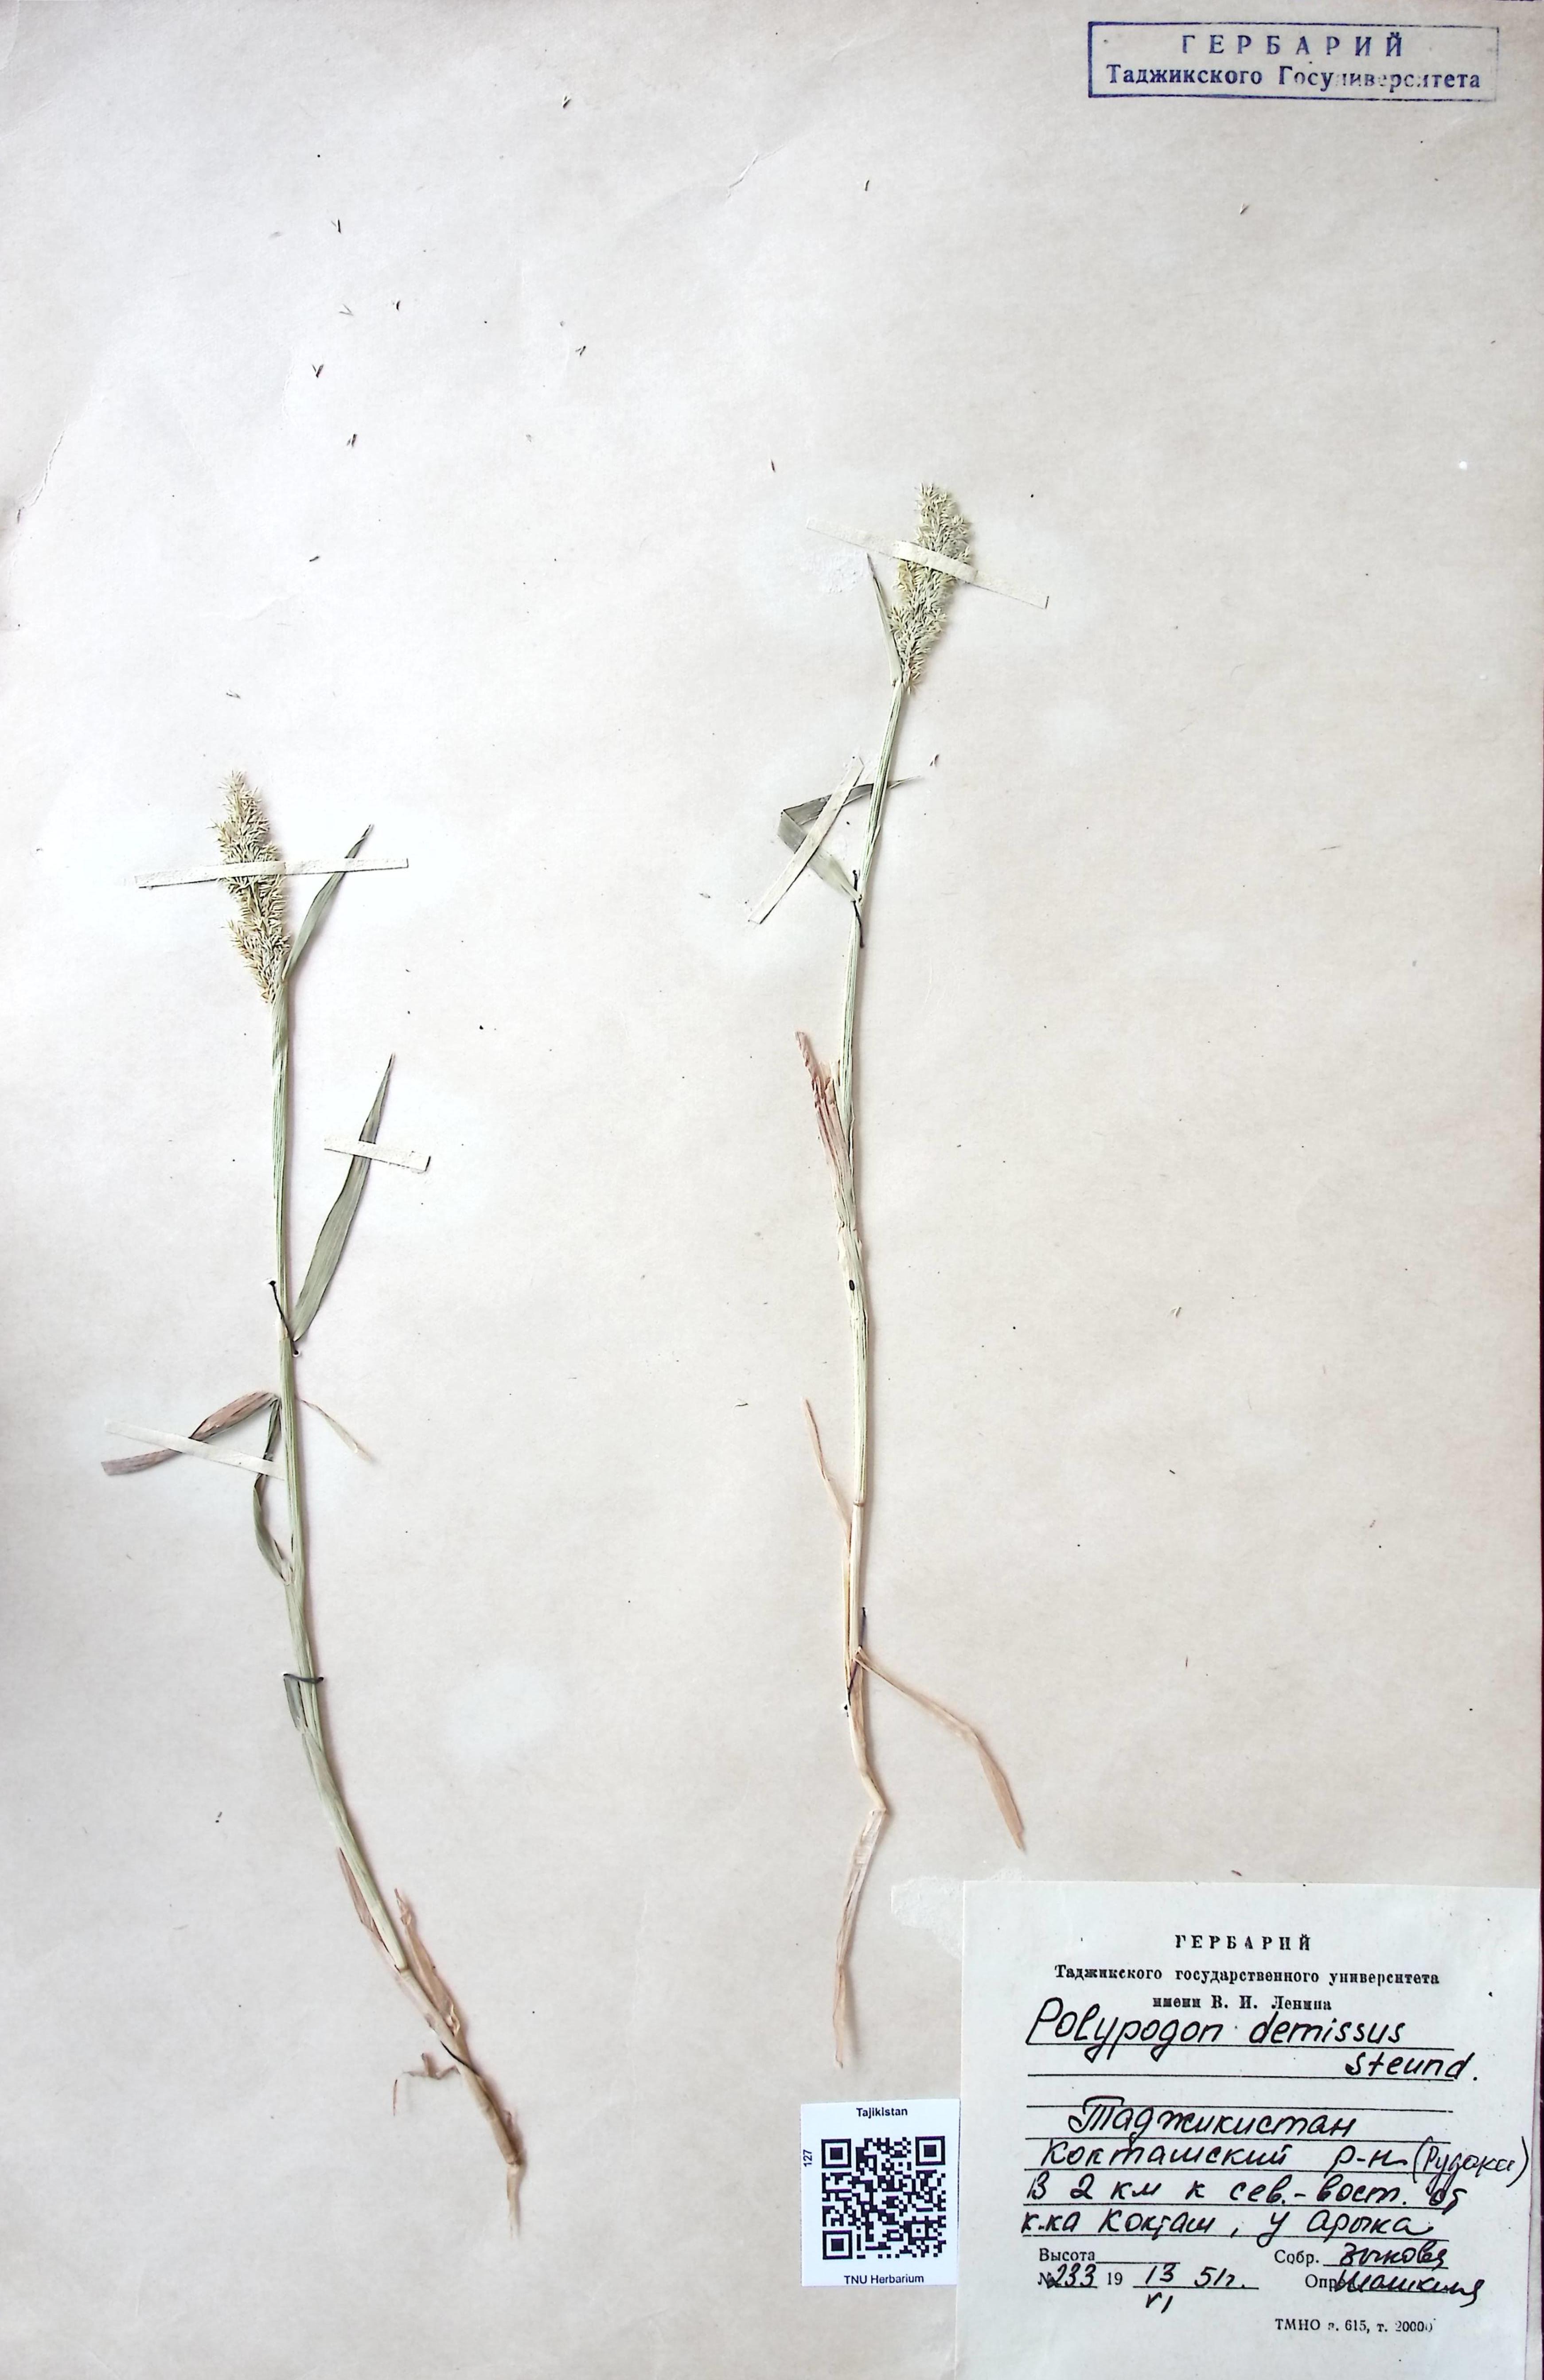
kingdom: Plantae
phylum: Tracheophyta
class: Liliopsida
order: Poales
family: Poaceae
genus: Polypogon
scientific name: Polypogon fugax
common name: Asia minor bluegrass
